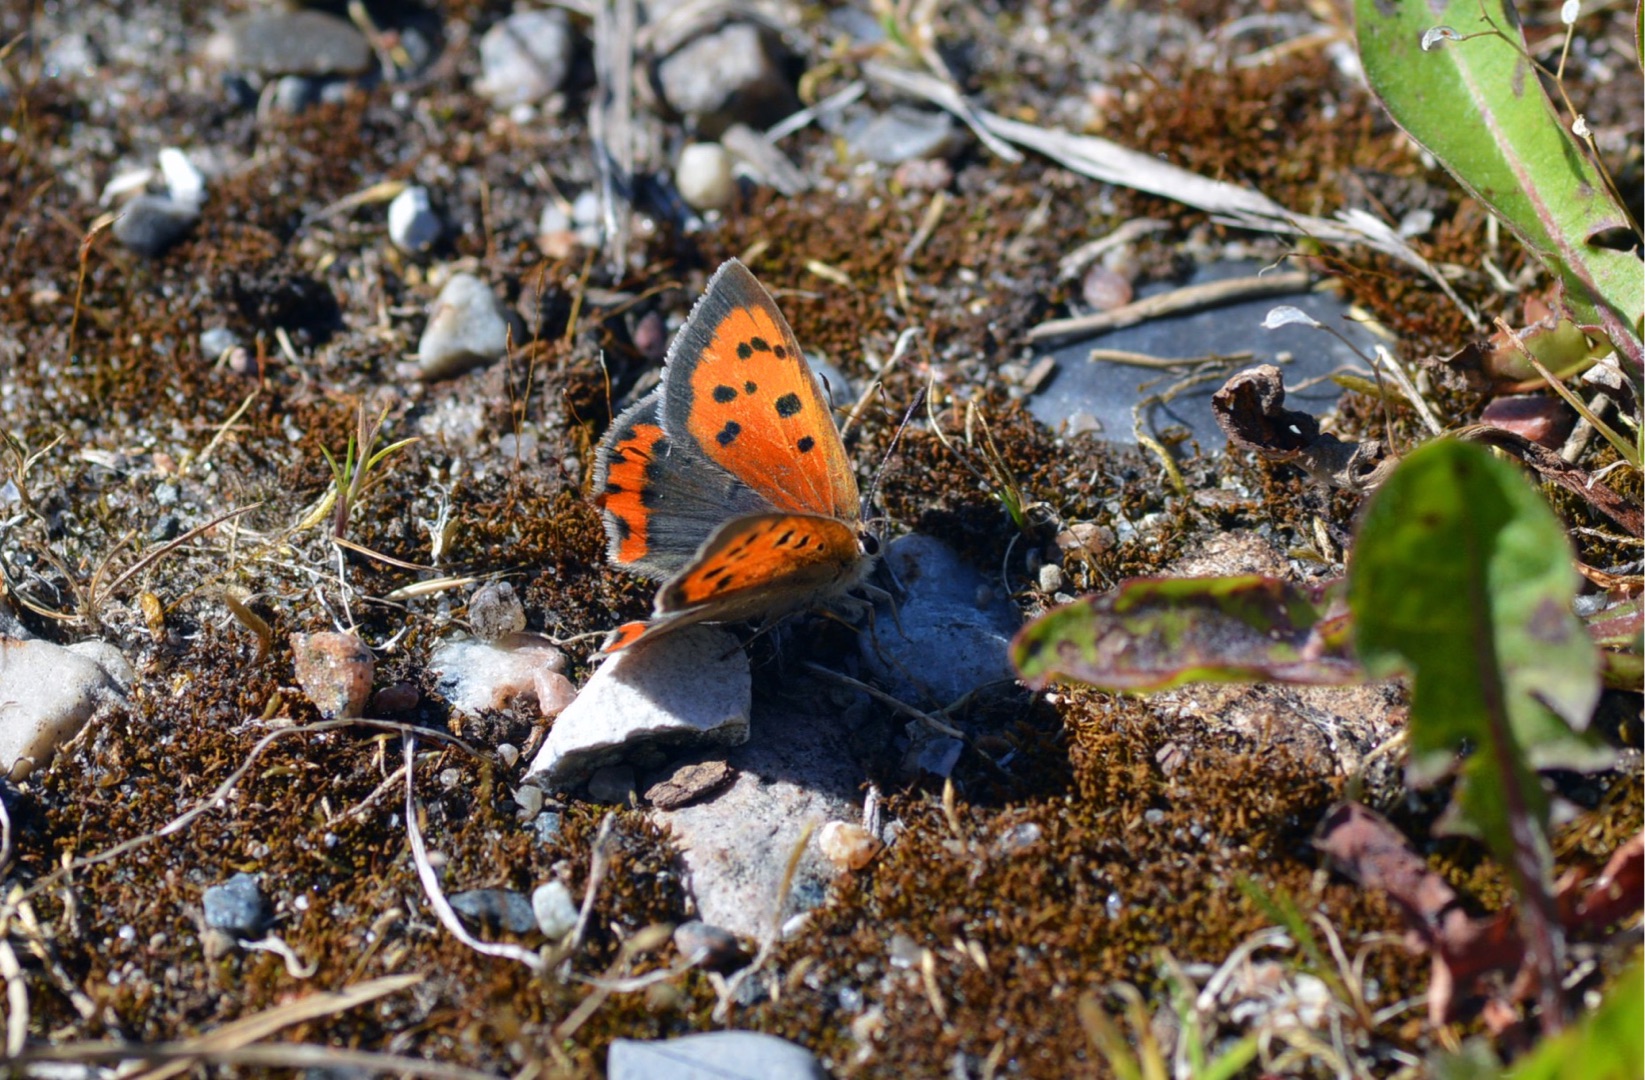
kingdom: Animalia
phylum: Arthropoda
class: Insecta
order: Lepidoptera
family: Lycaenidae
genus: Lycaena
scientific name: Lycaena phlaeas
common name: Lille ildfugl
